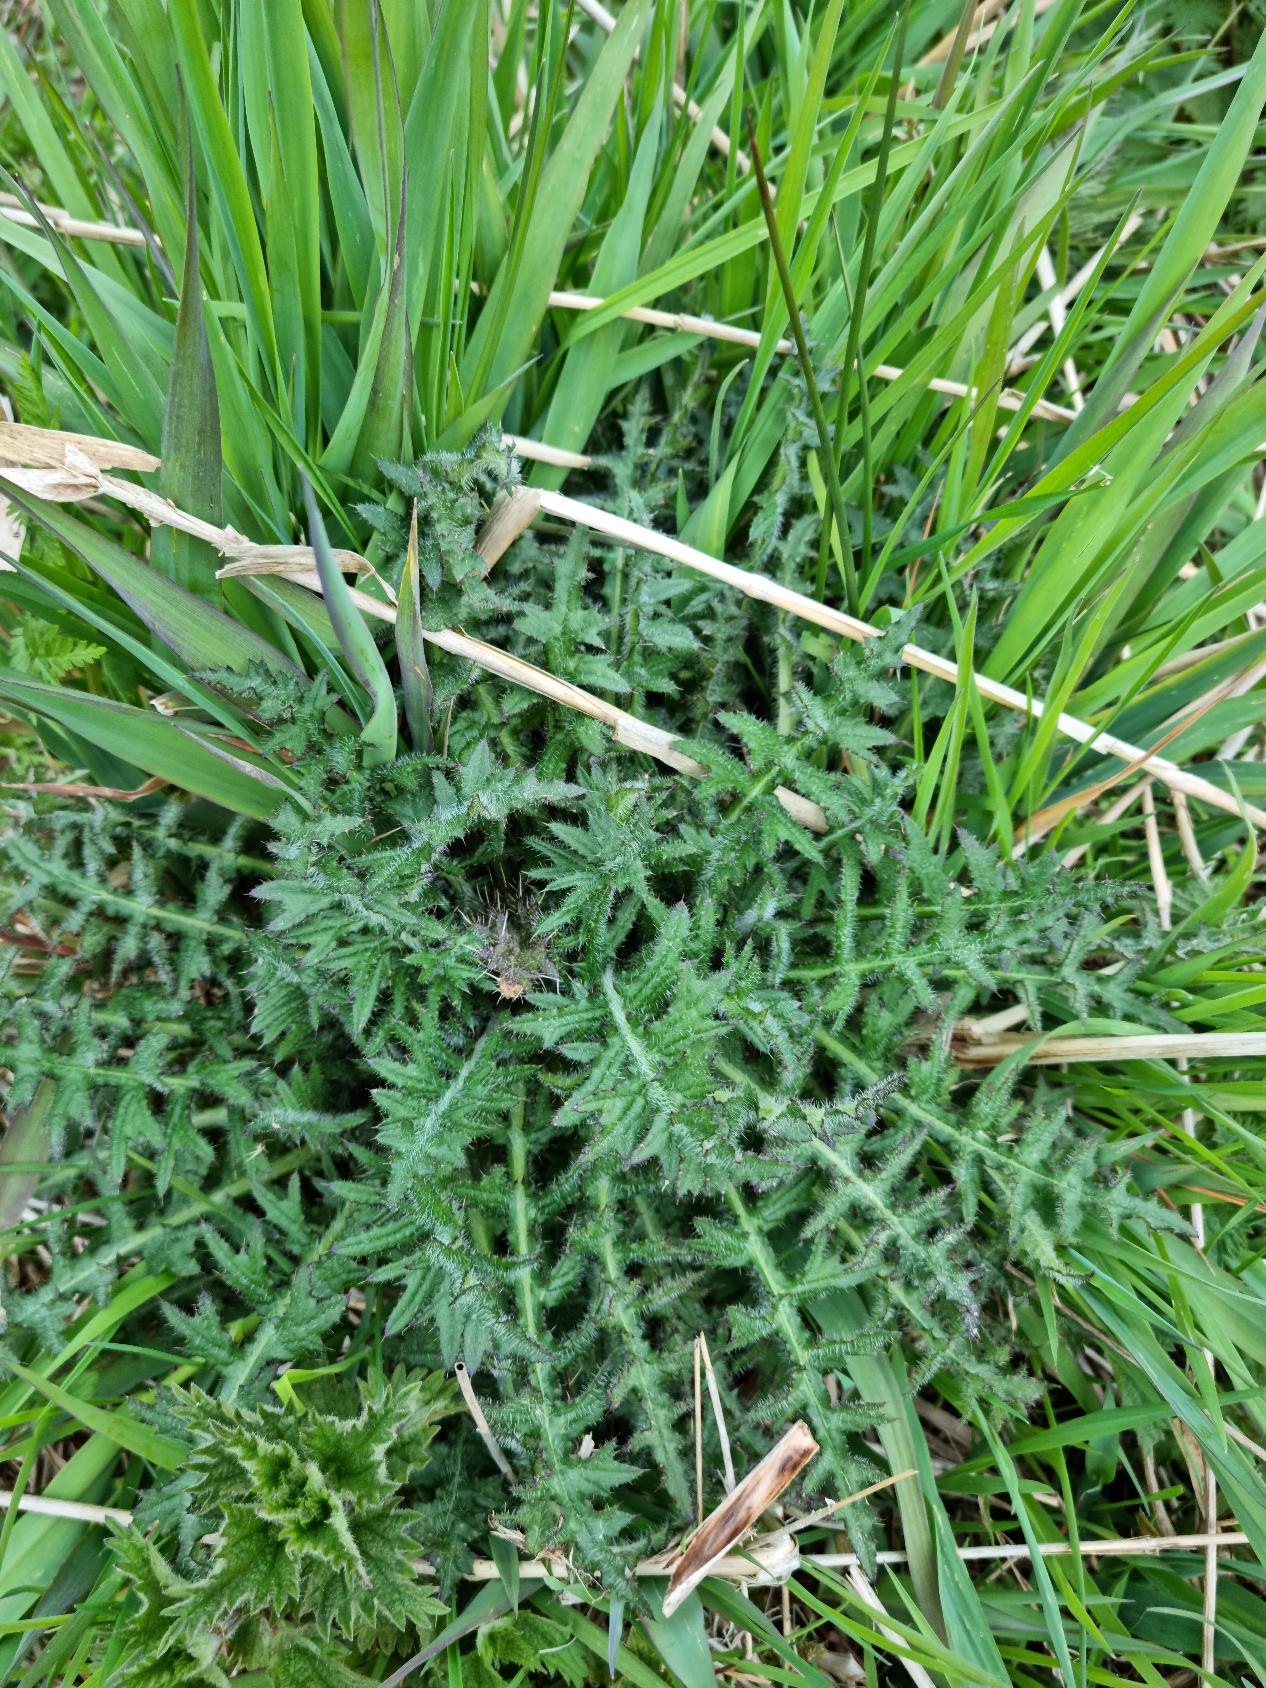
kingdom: Plantae
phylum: Tracheophyta
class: Magnoliopsida
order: Asterales
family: Asteraceae
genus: Cirsium
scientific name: Cirsium palustre
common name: Kær-tidsel
